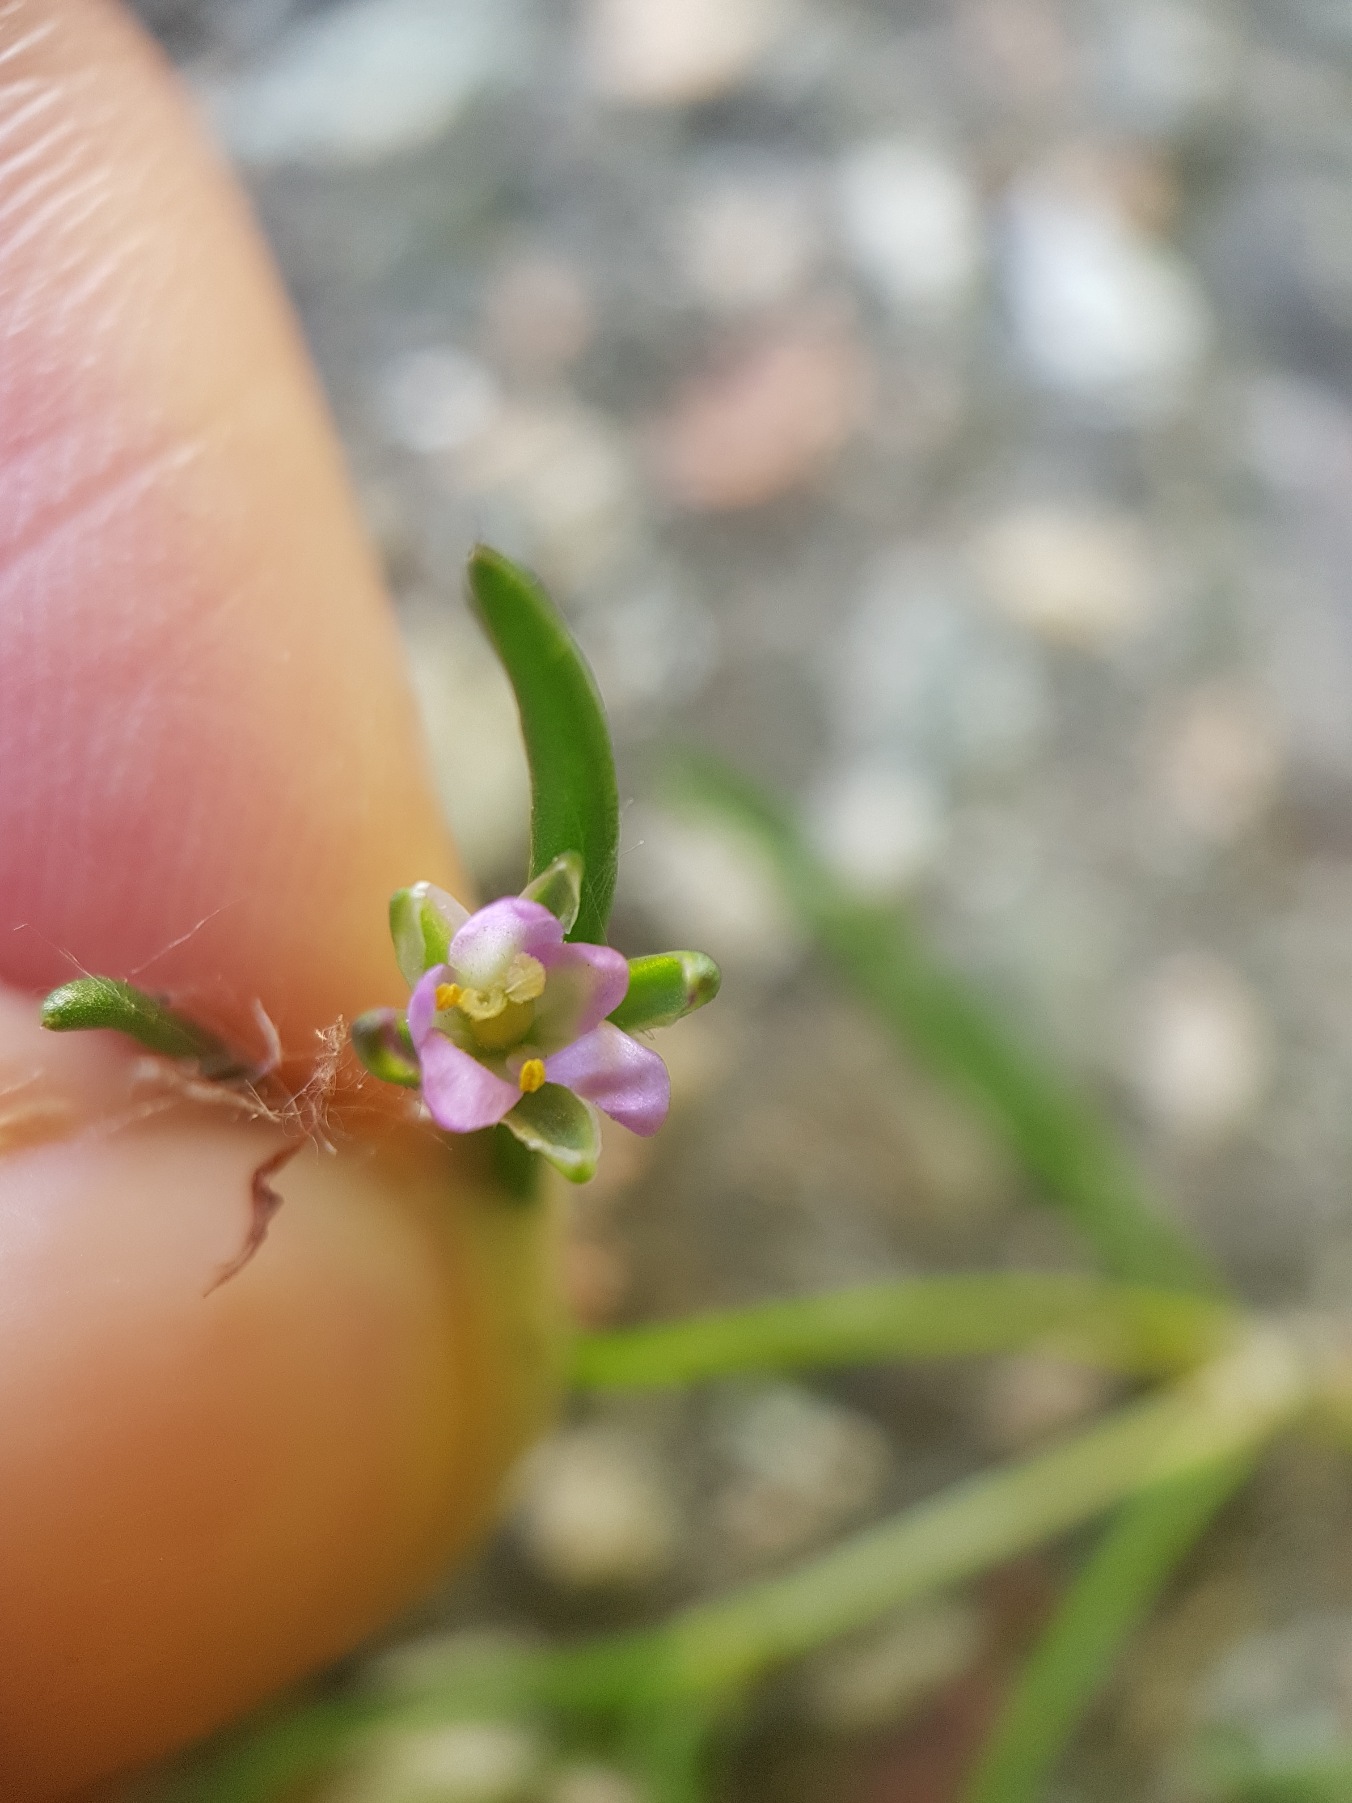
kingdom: Plantae
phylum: Tracheophyta
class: Magnoliopsida
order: Caryophyllales
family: Caryophyllaceae
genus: Spergularia
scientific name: Spergularia marina
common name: Kødet hindeknæ
